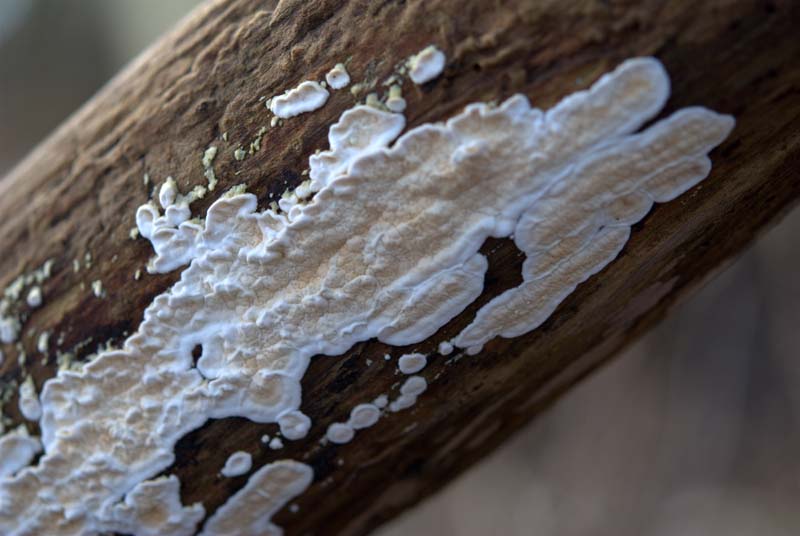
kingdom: Fungi
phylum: Basidiomycota
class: Agaricomycetes
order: Polyporales
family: Irpicaceae
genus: Byssomerulius
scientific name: Byssomerulius corium
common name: læder-åresvamp
